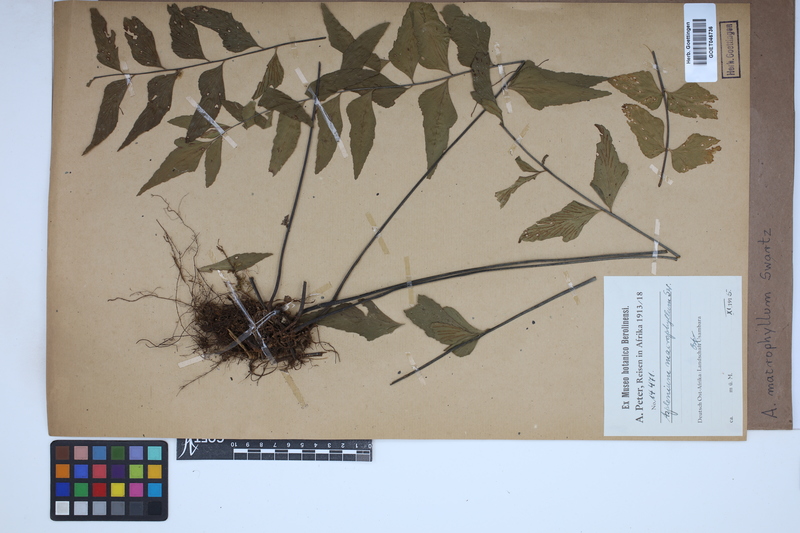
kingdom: Plantae
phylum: Tracheophyta
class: Polypodiopsida
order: Polypodiales
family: Aspleniaceae
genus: Asplenium
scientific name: Asplenium macrophyllum
